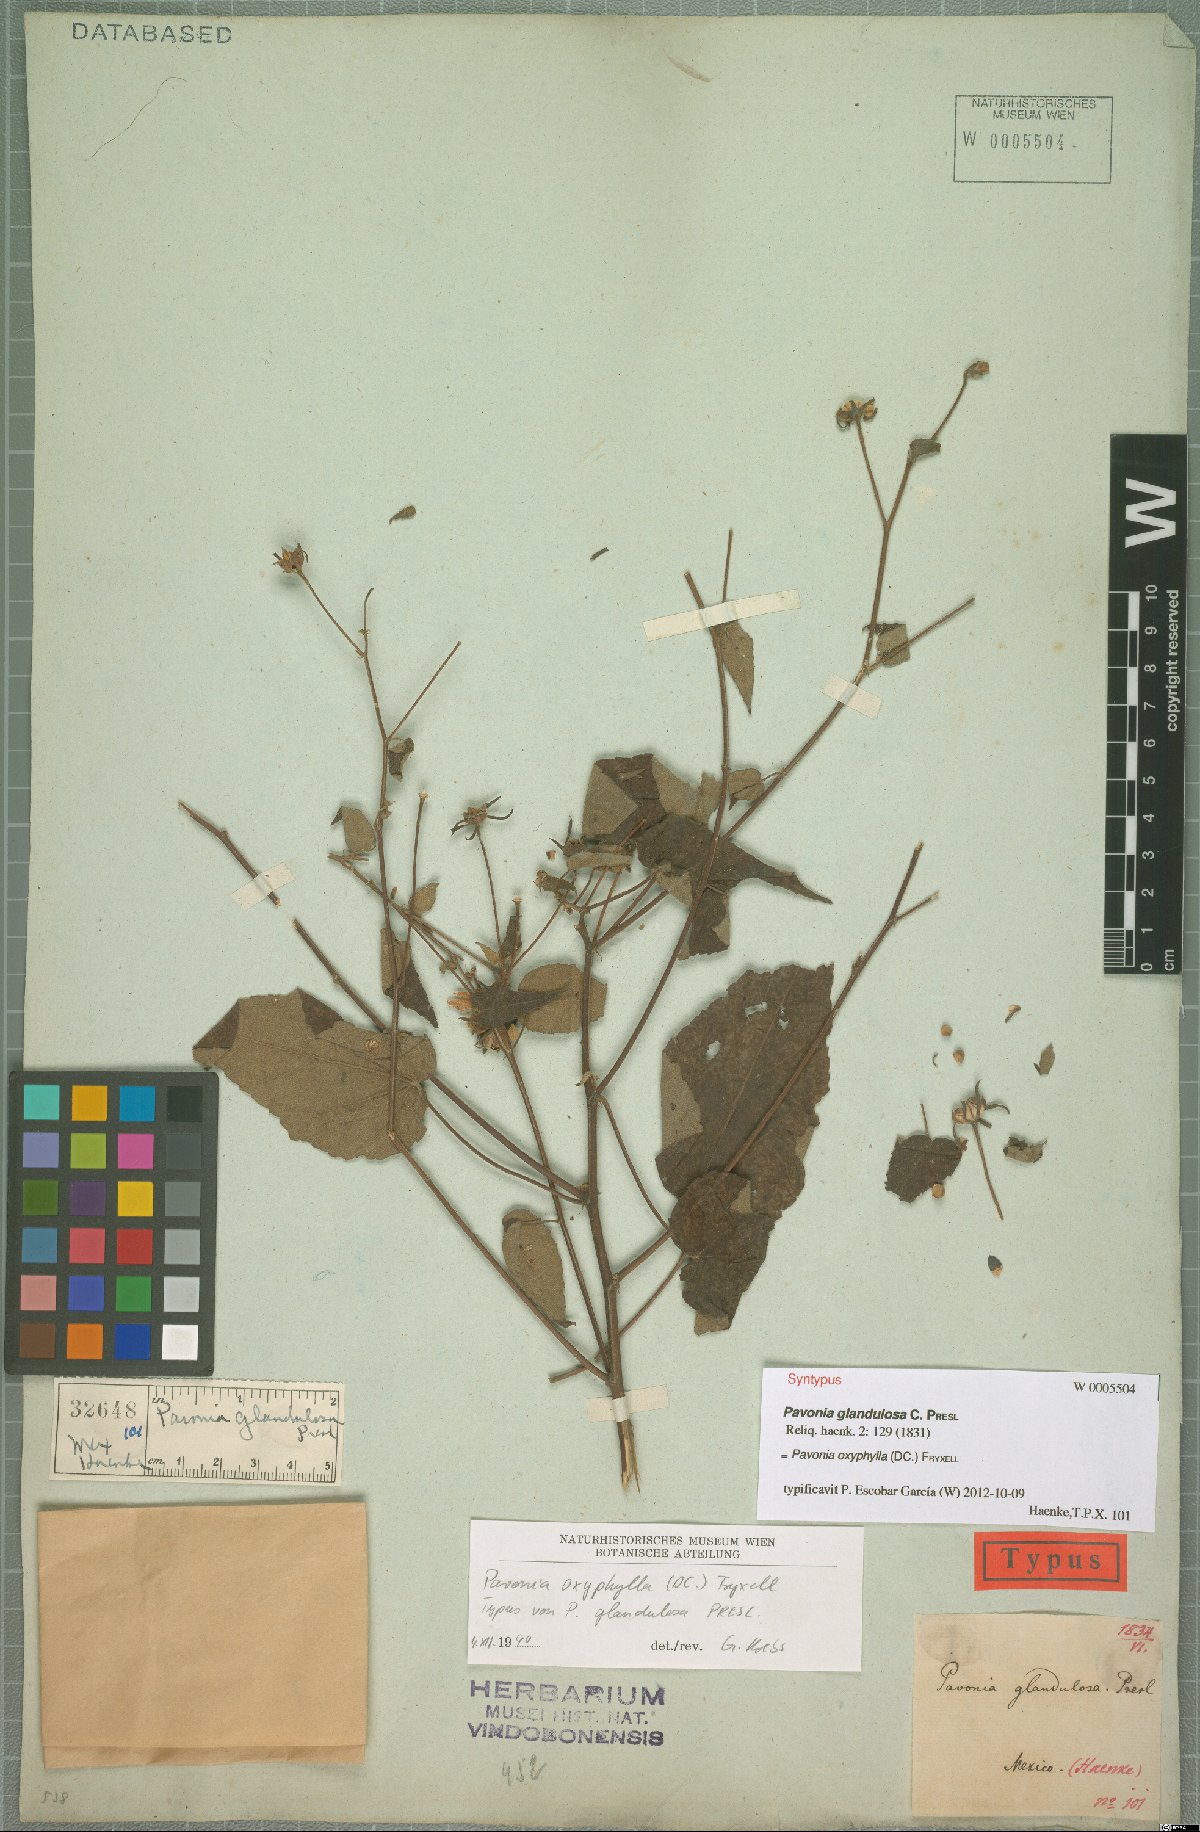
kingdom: Plantae
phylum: Tracheophyta
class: Magnoliopsida
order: Malvales
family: Malvaceae
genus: Pavonia
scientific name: Pavonia oxyphylla
